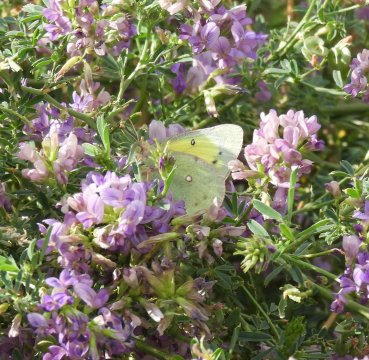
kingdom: Animalia
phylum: Arthropoda
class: Insecta
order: Lepidoptera
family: Pieridae
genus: Colias
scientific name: Colias eurytheme
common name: Orange Sulphur
